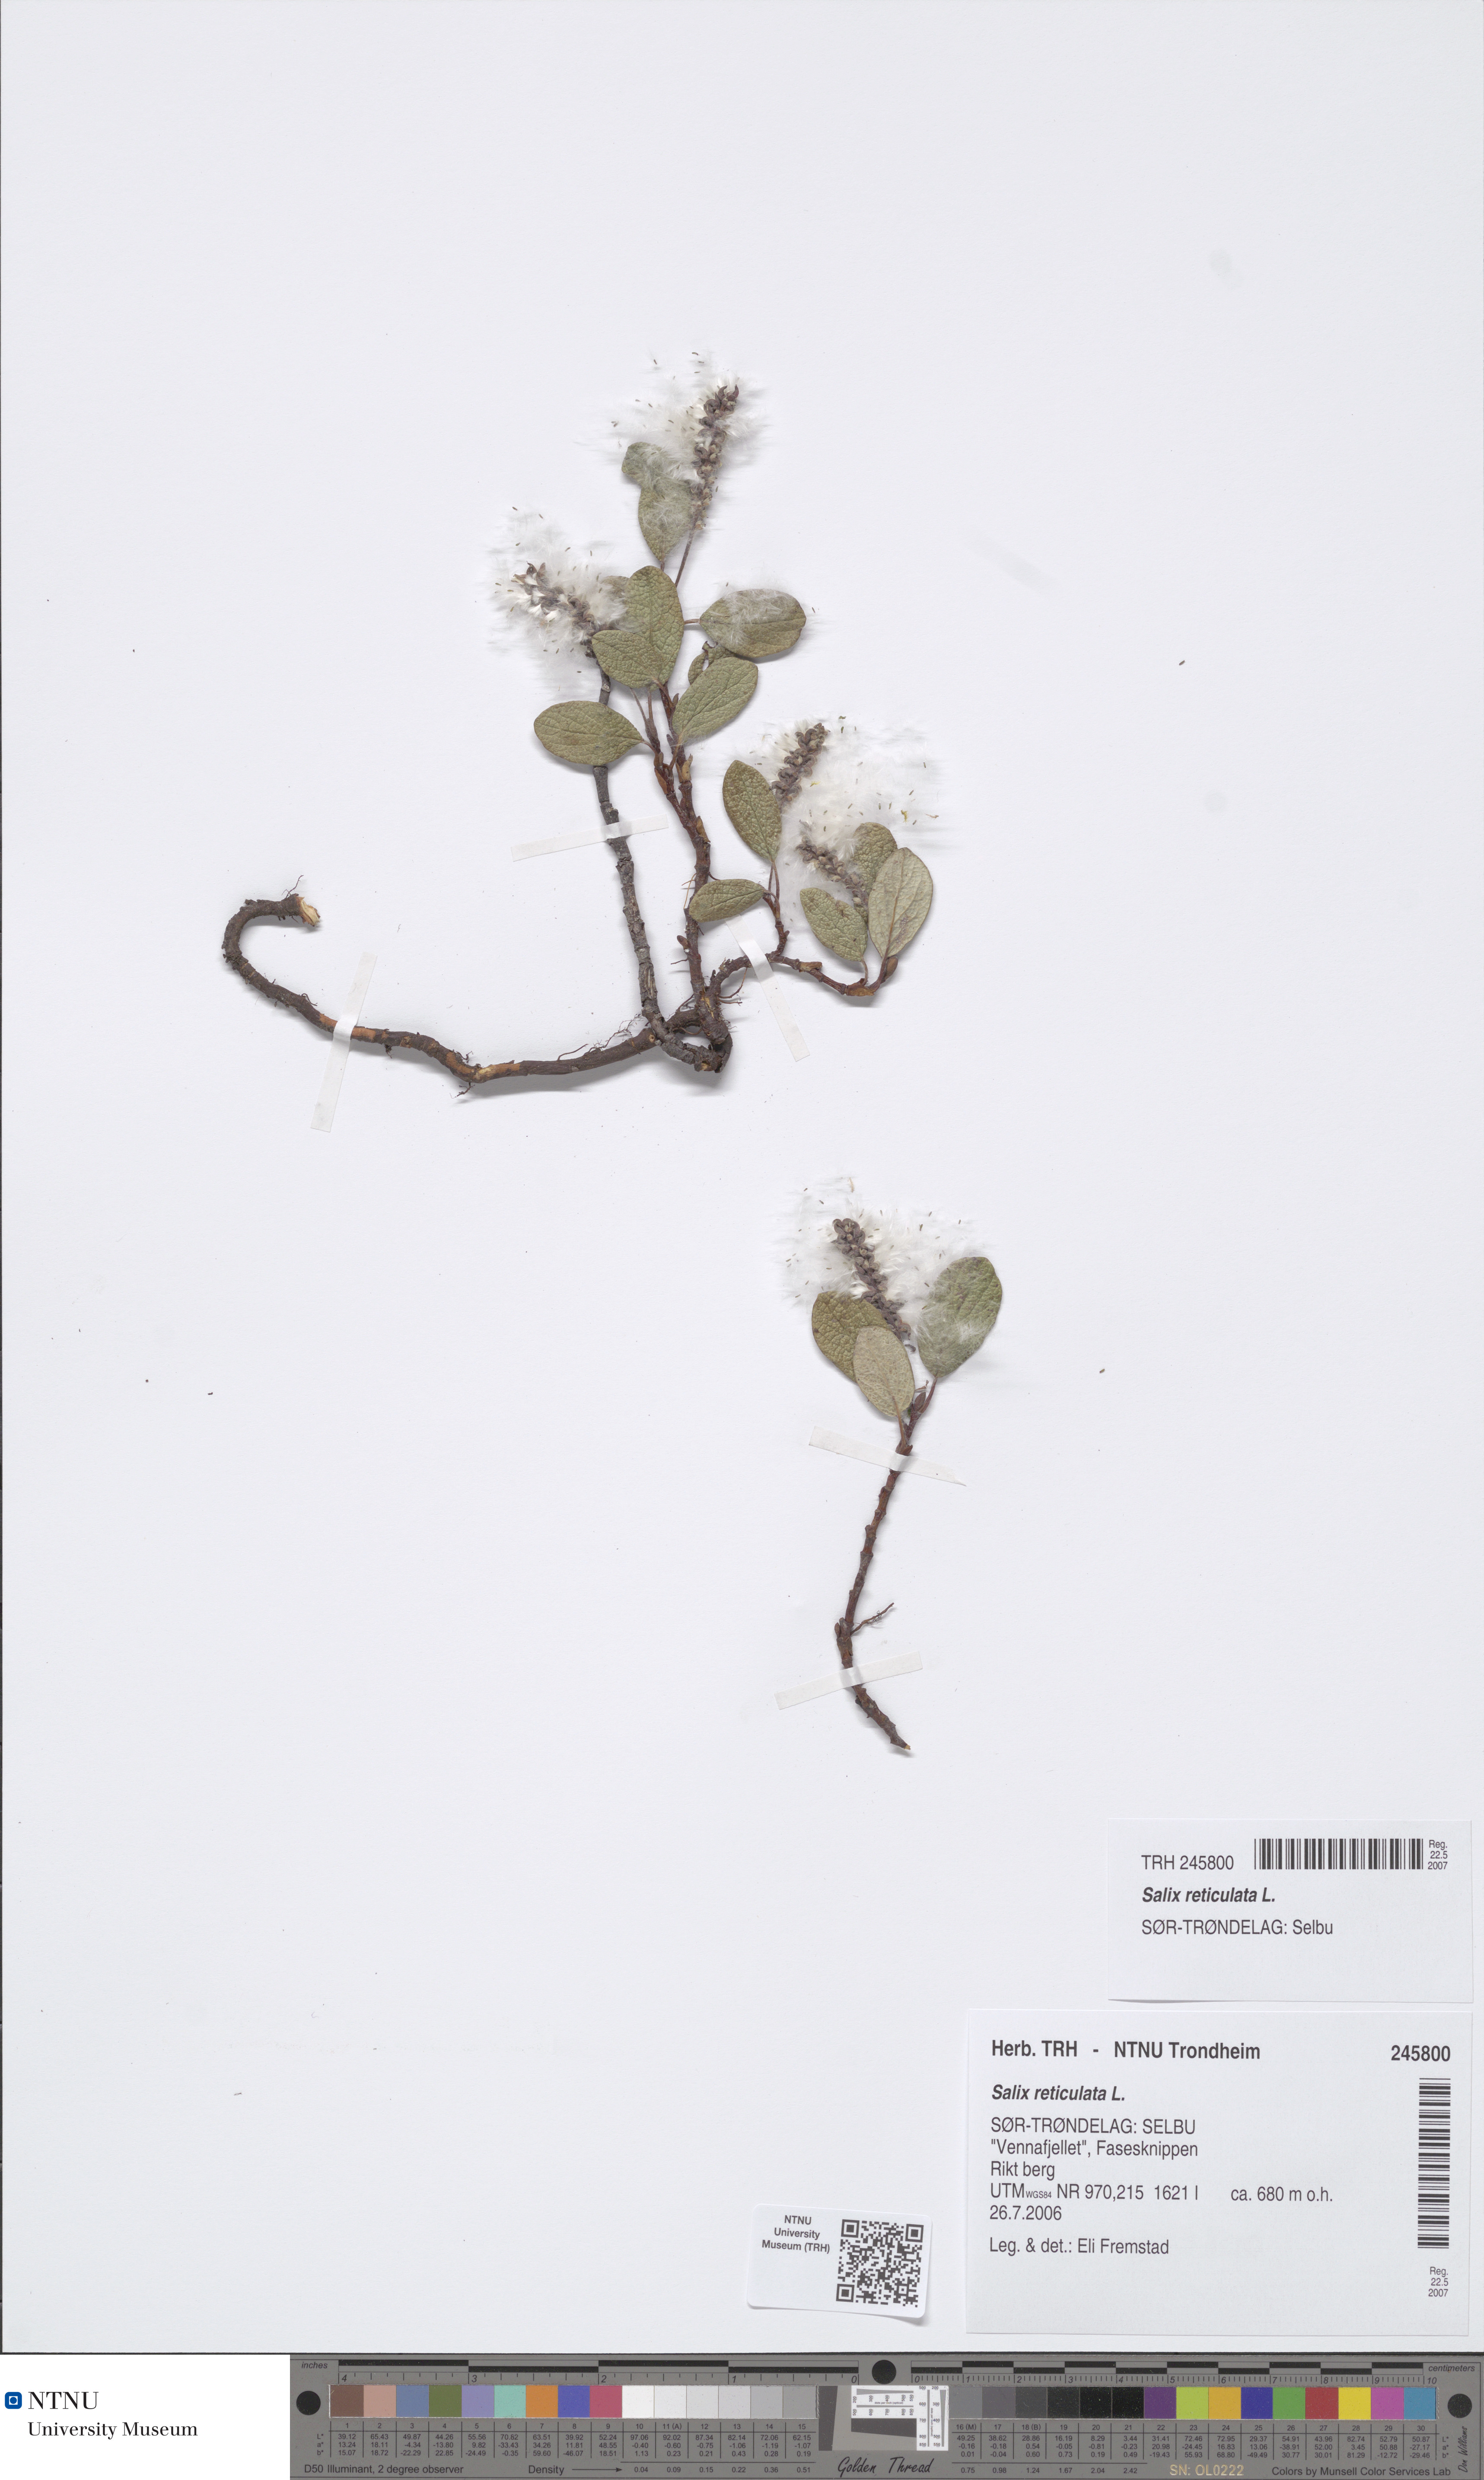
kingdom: Plantae
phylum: Tracheophyta
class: Magnoliopsida
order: Malpighiales
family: Salicaceae
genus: Salix
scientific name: Salix reticulata
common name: Net-leaved willow
